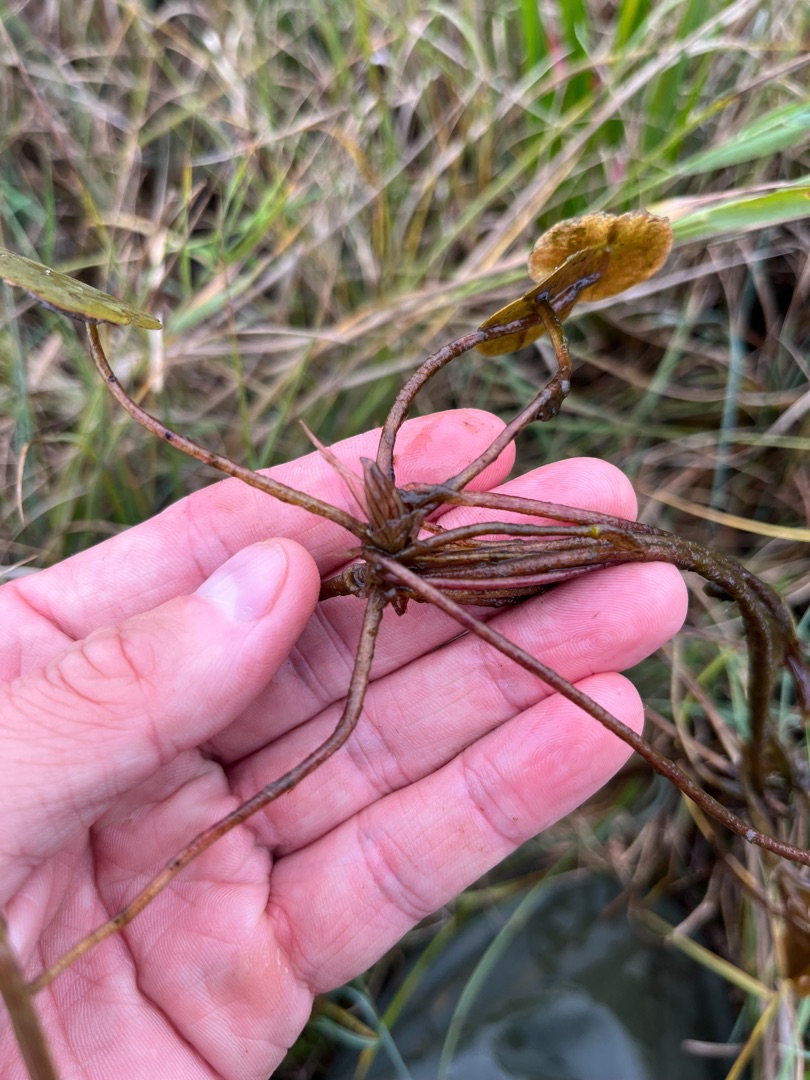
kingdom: Plantae
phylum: Tracheophyta
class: Liliopsida
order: Alismatales
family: Hydrocharitaceae
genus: Hydrocharis
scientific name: Hydrocharis morsus-ranae
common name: Frøbid
